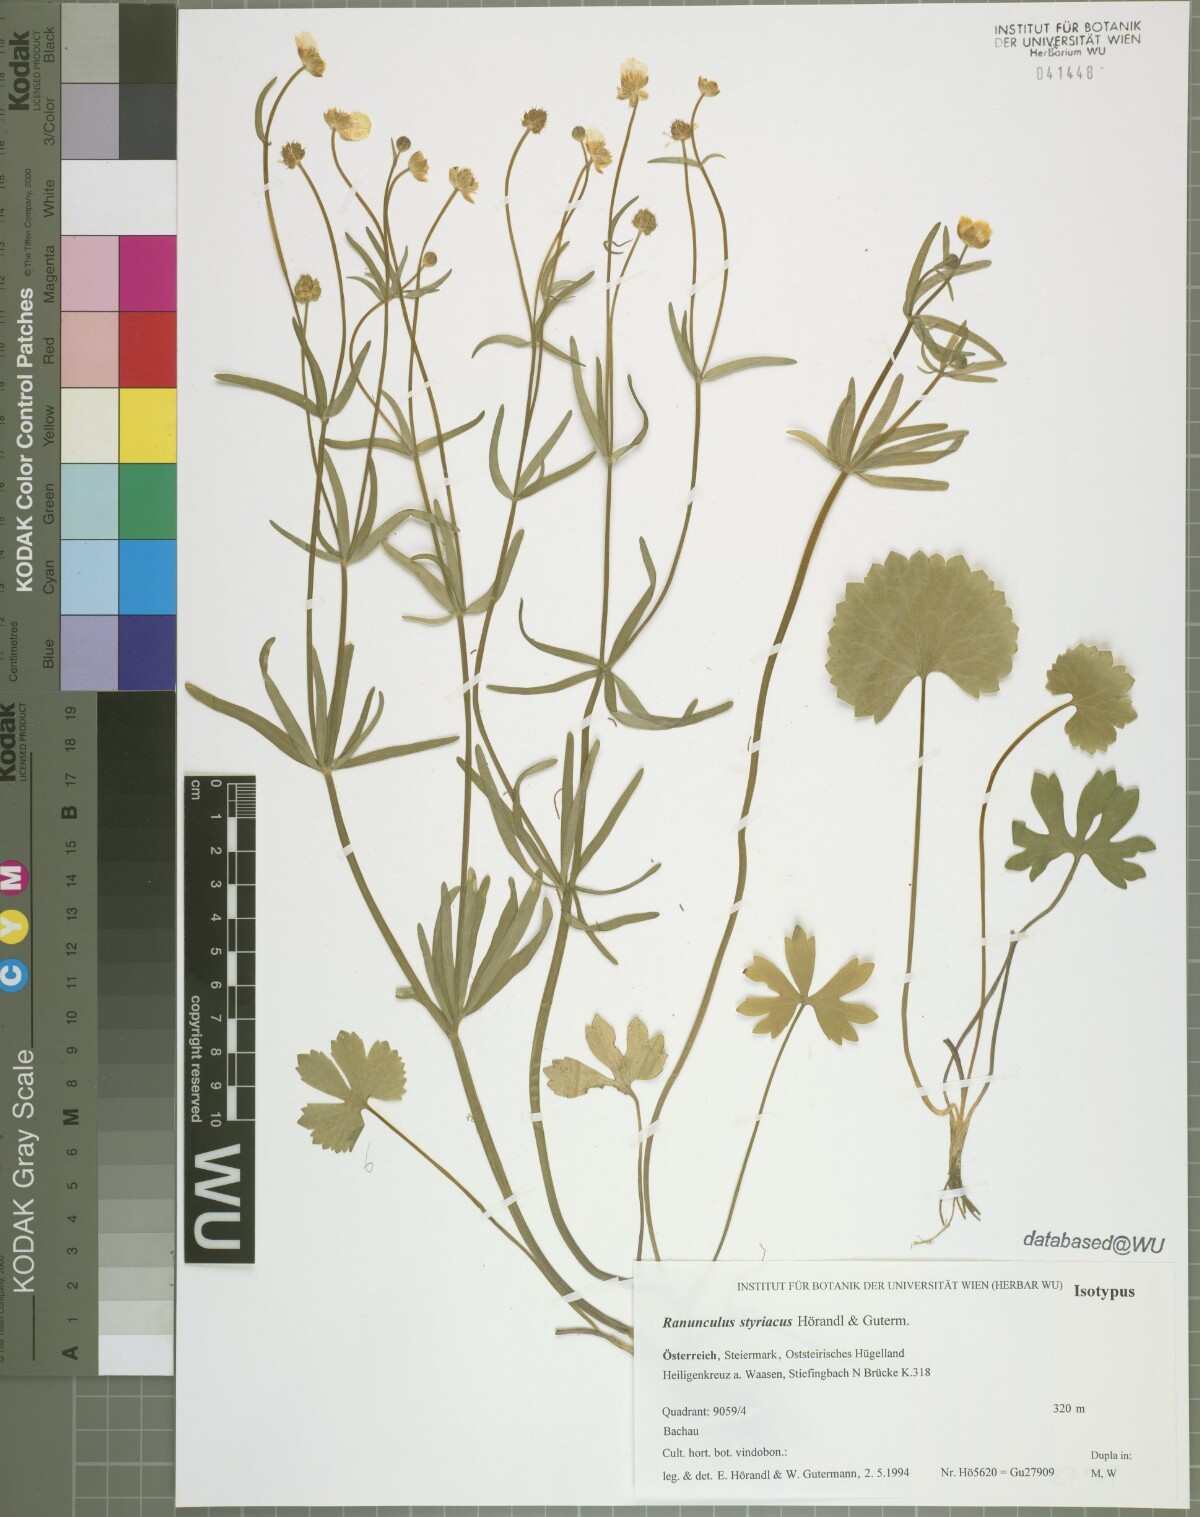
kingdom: Plantae
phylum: Tracheophyta
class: Magnoliopsida
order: Ranunculales
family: Ranunculaceae
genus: Ranunculus
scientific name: Ranunculus styriacus
